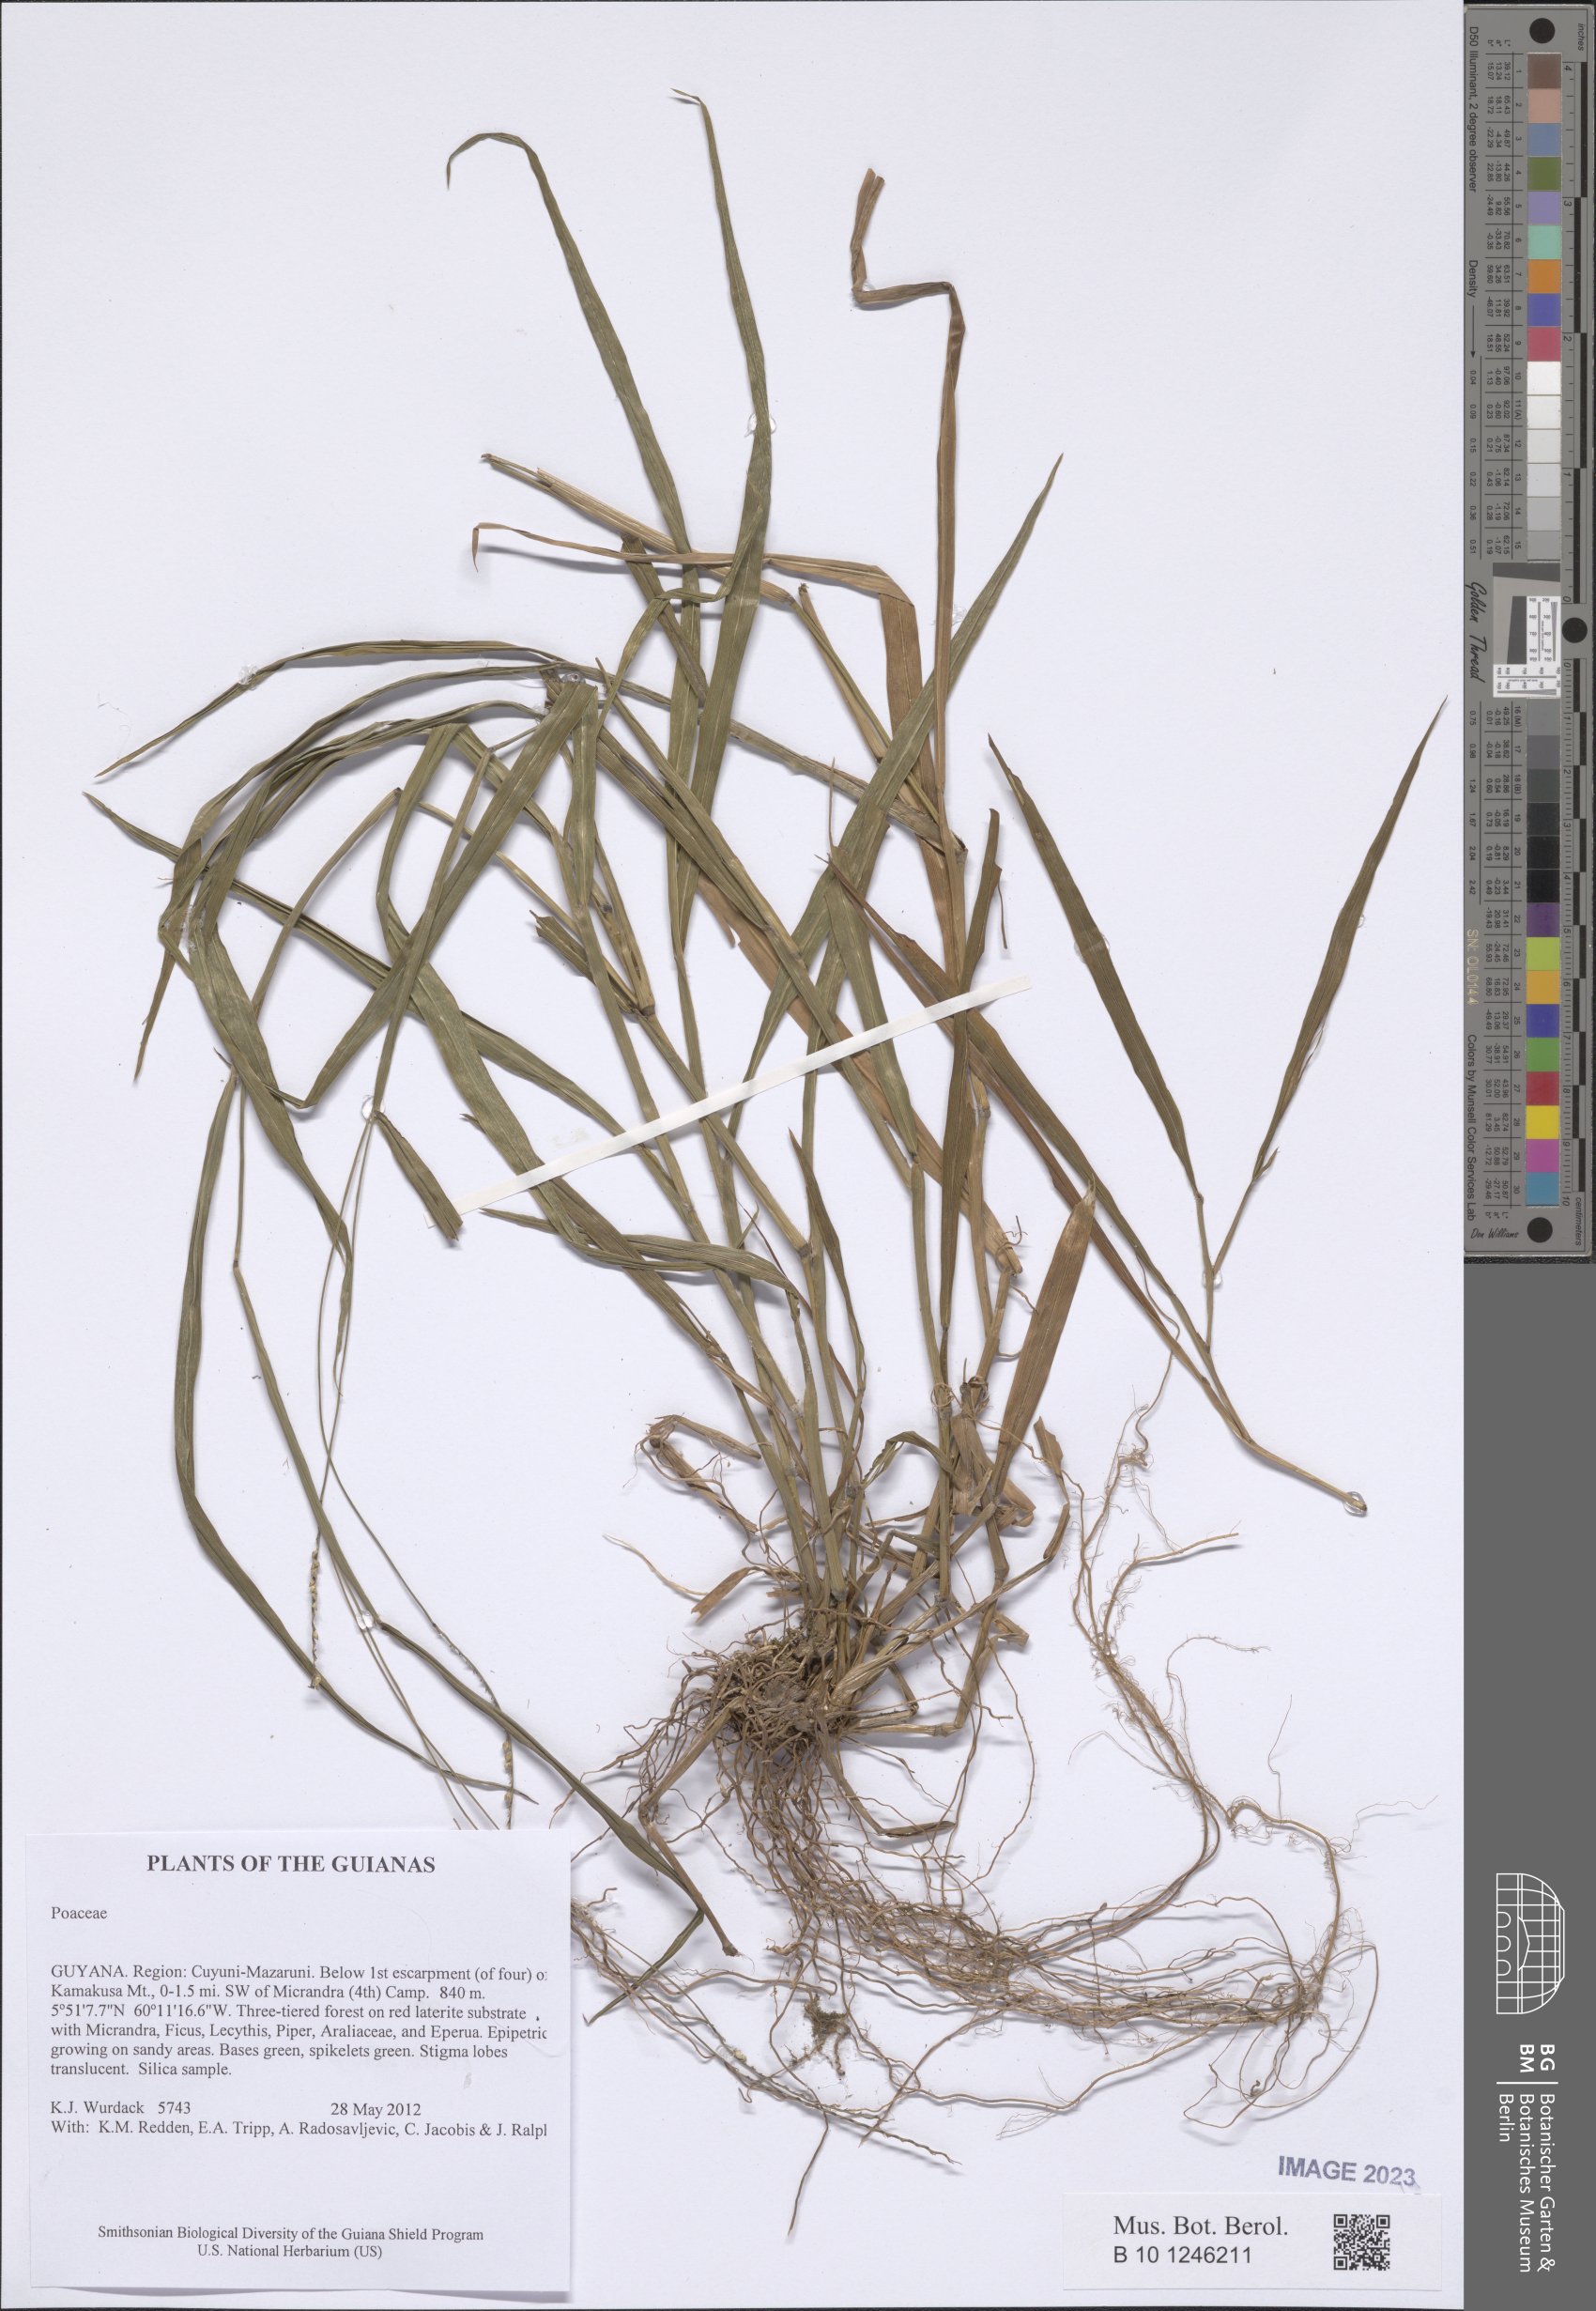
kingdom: Plantae
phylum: Tracheophyta
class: Liliopsida
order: Poales
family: Poaceae
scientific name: Poaceae
